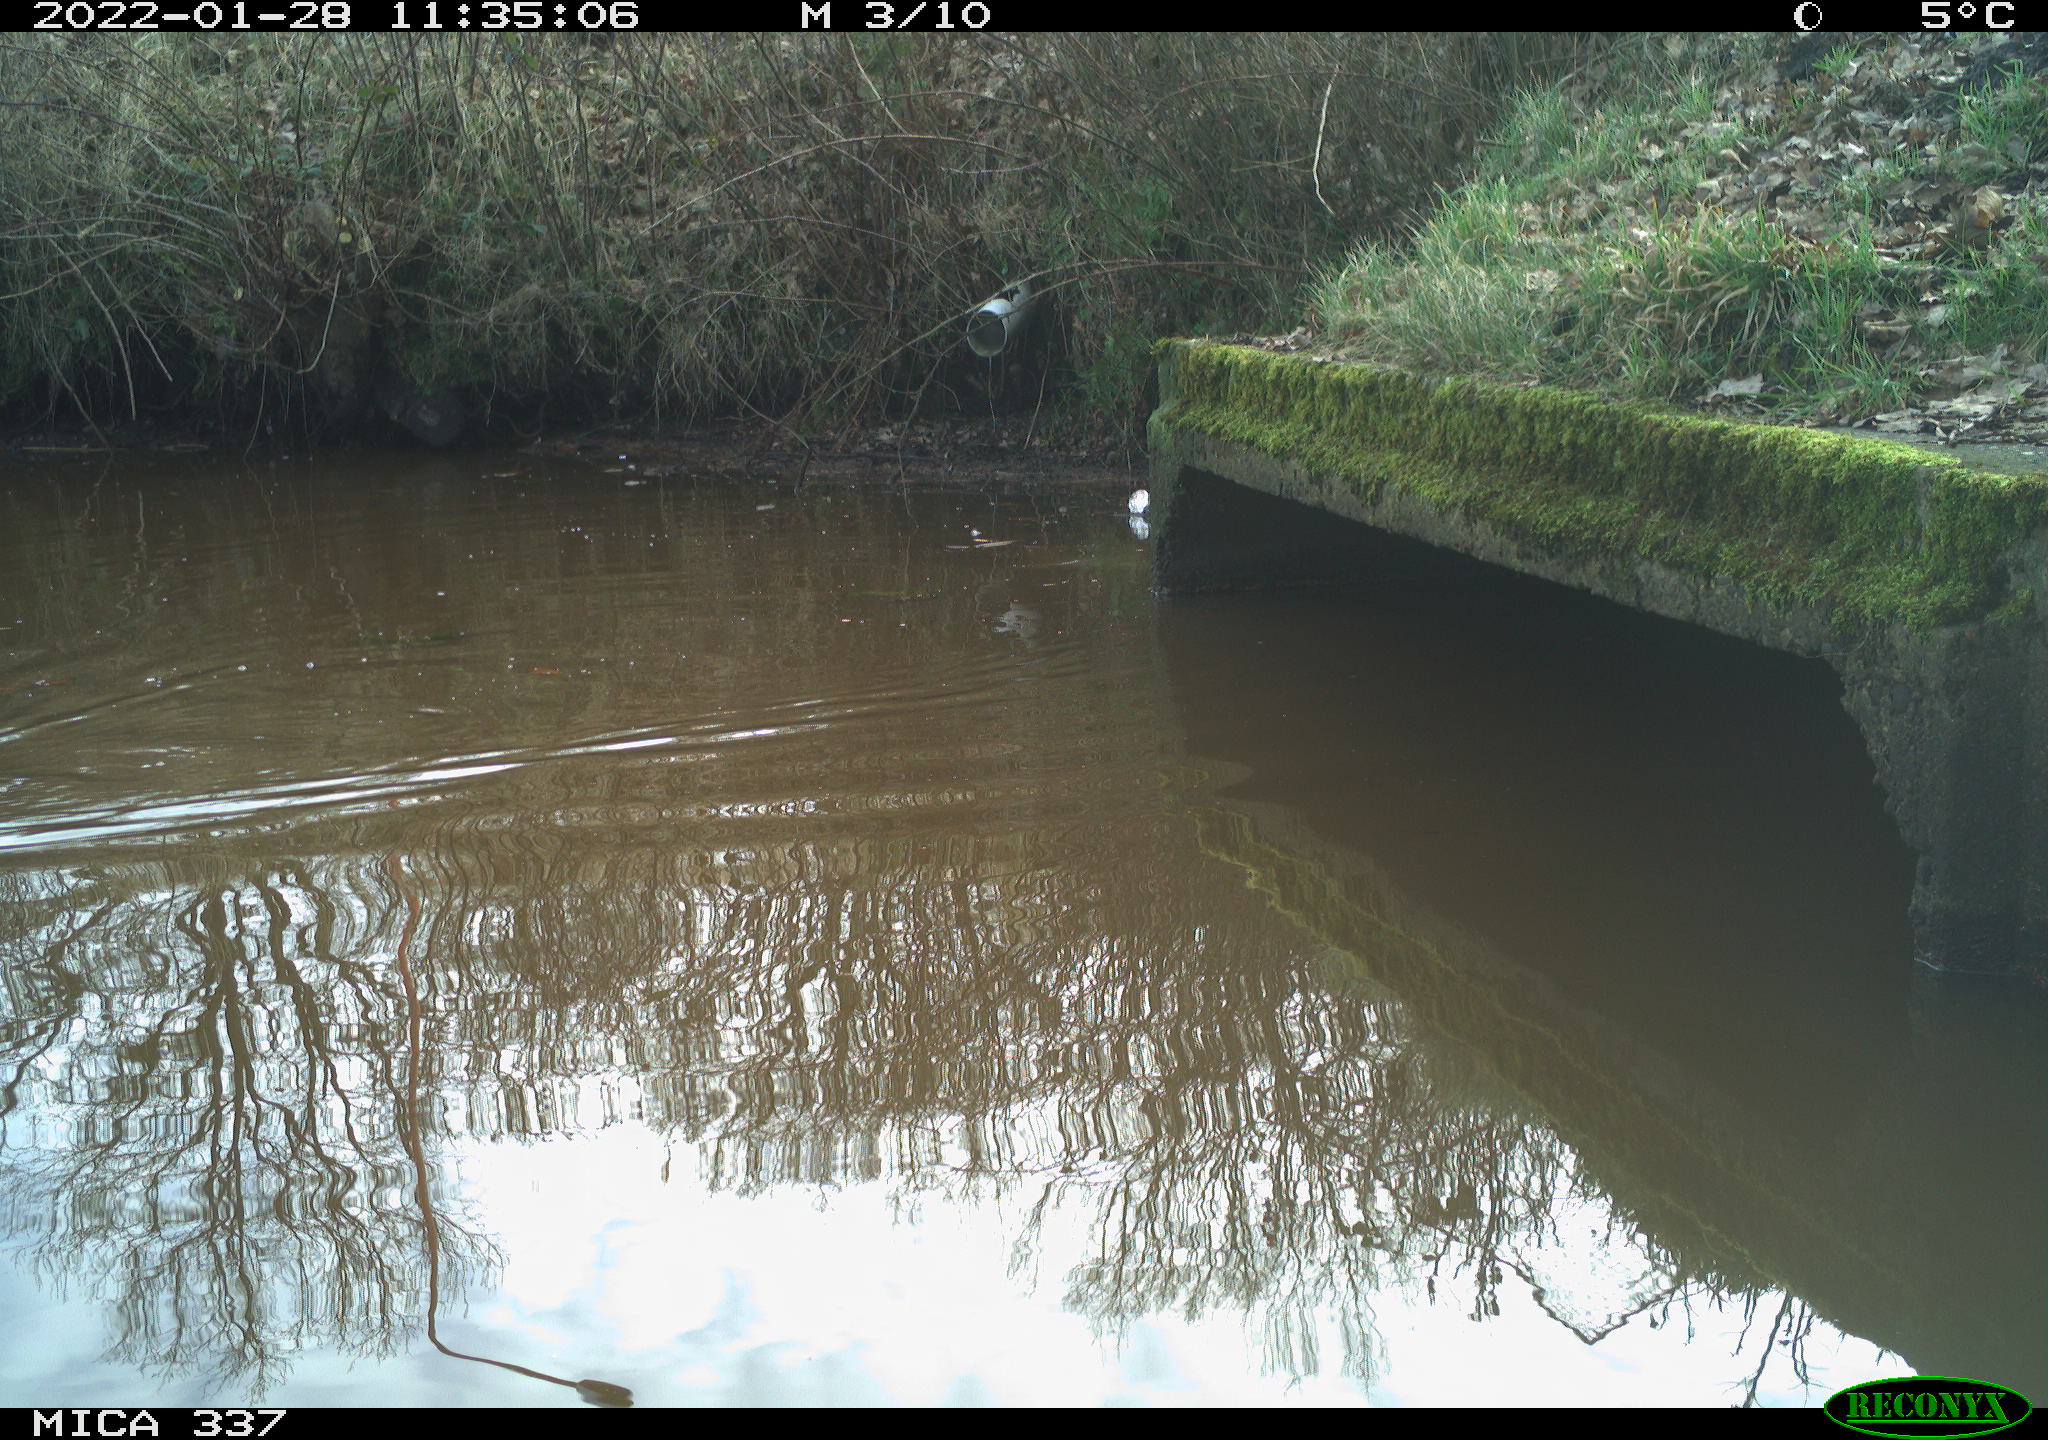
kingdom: Animalia
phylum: Chordata
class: Aves
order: Anseriformes
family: Anatidae
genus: Anas
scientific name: Anas platyrhynchos
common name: Mallard
